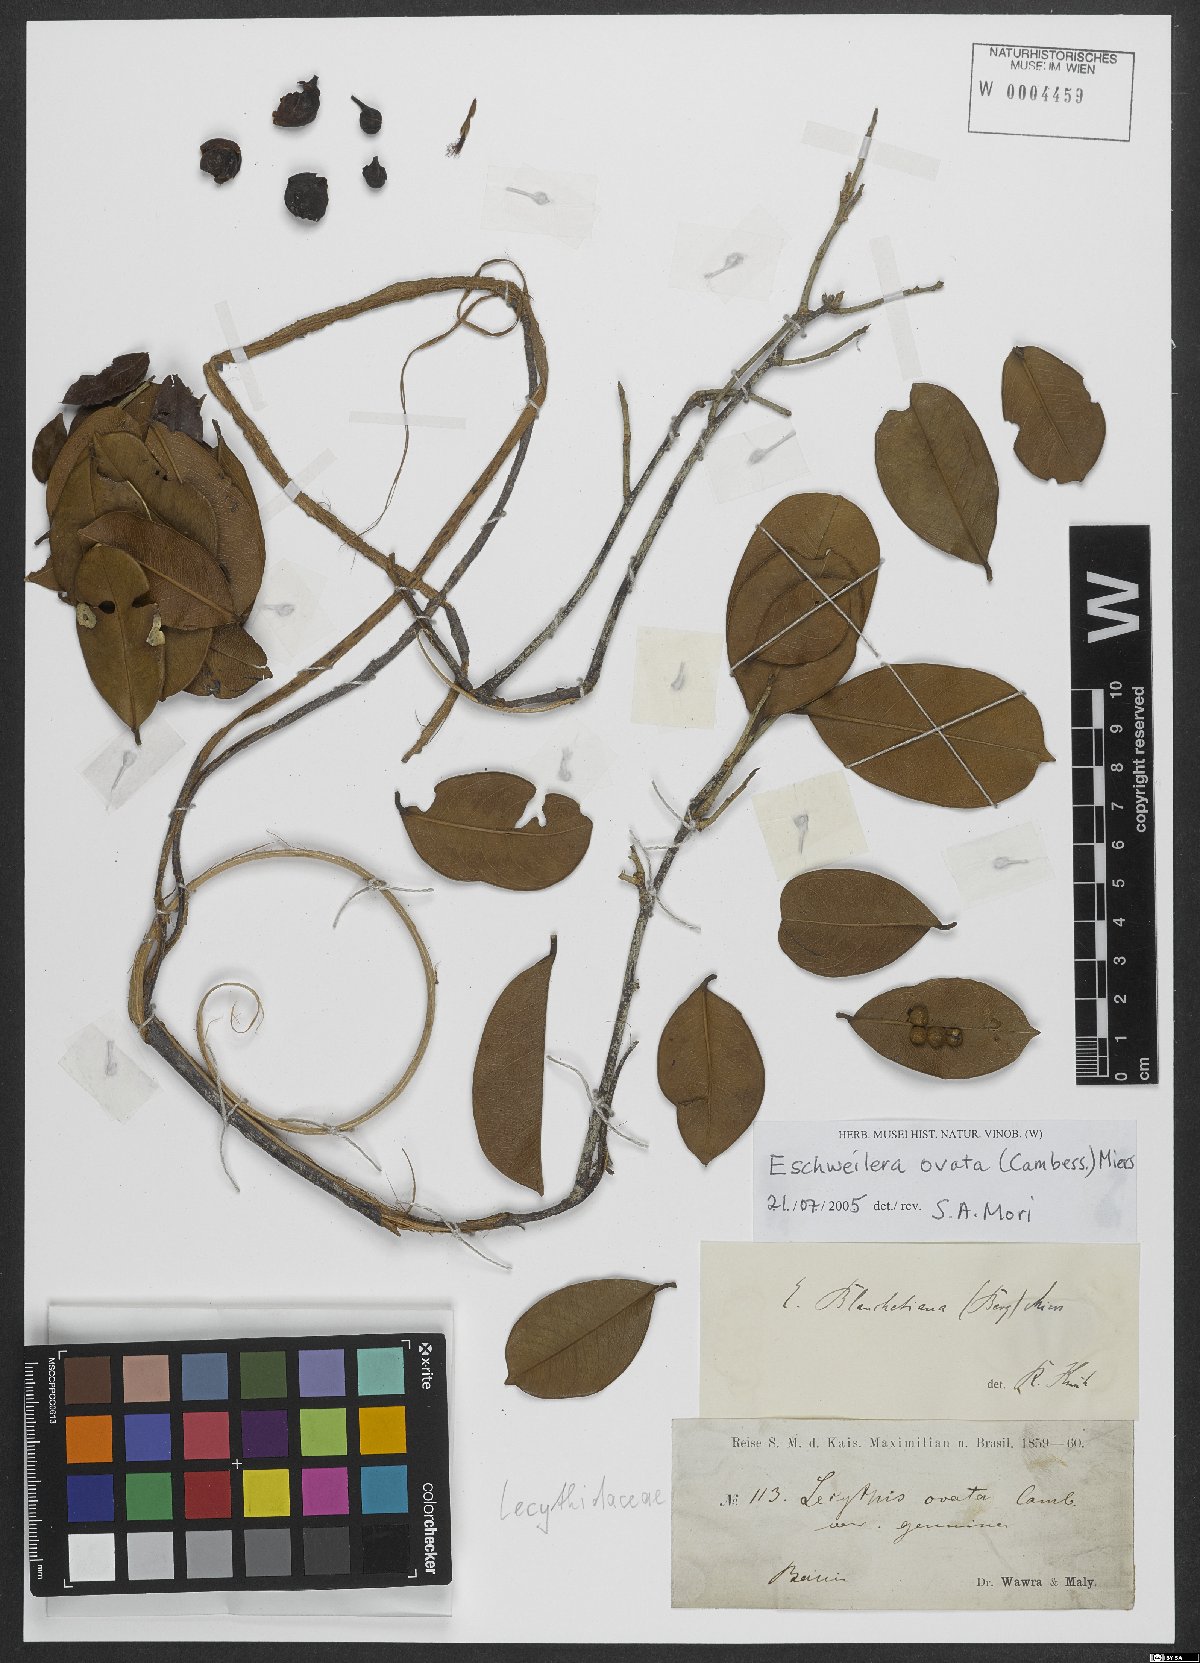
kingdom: Plantae
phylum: Tracheophyta
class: Magnoliopsida
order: Ericales
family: Lecythidaceae
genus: Eschweilera
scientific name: Eschweilera ovata
